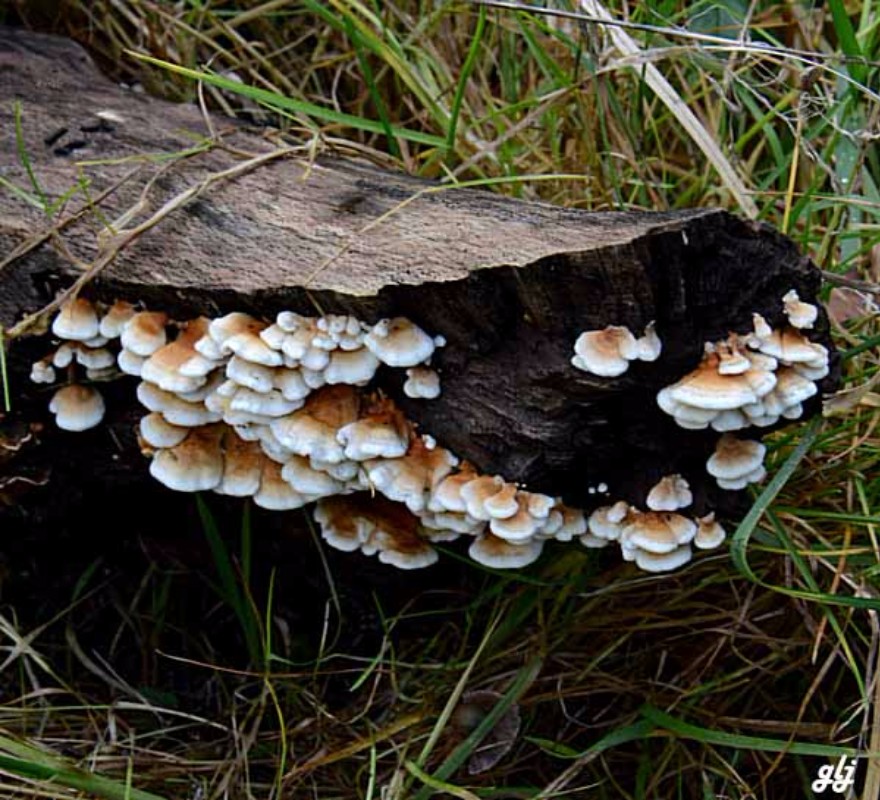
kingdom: Fungi
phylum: Basidiomycota
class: Agaricomycetes
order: Amylocorticiales
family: Amylocorticiaceae
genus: Plicaturopsis
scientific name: Plicaturopsis crispa
